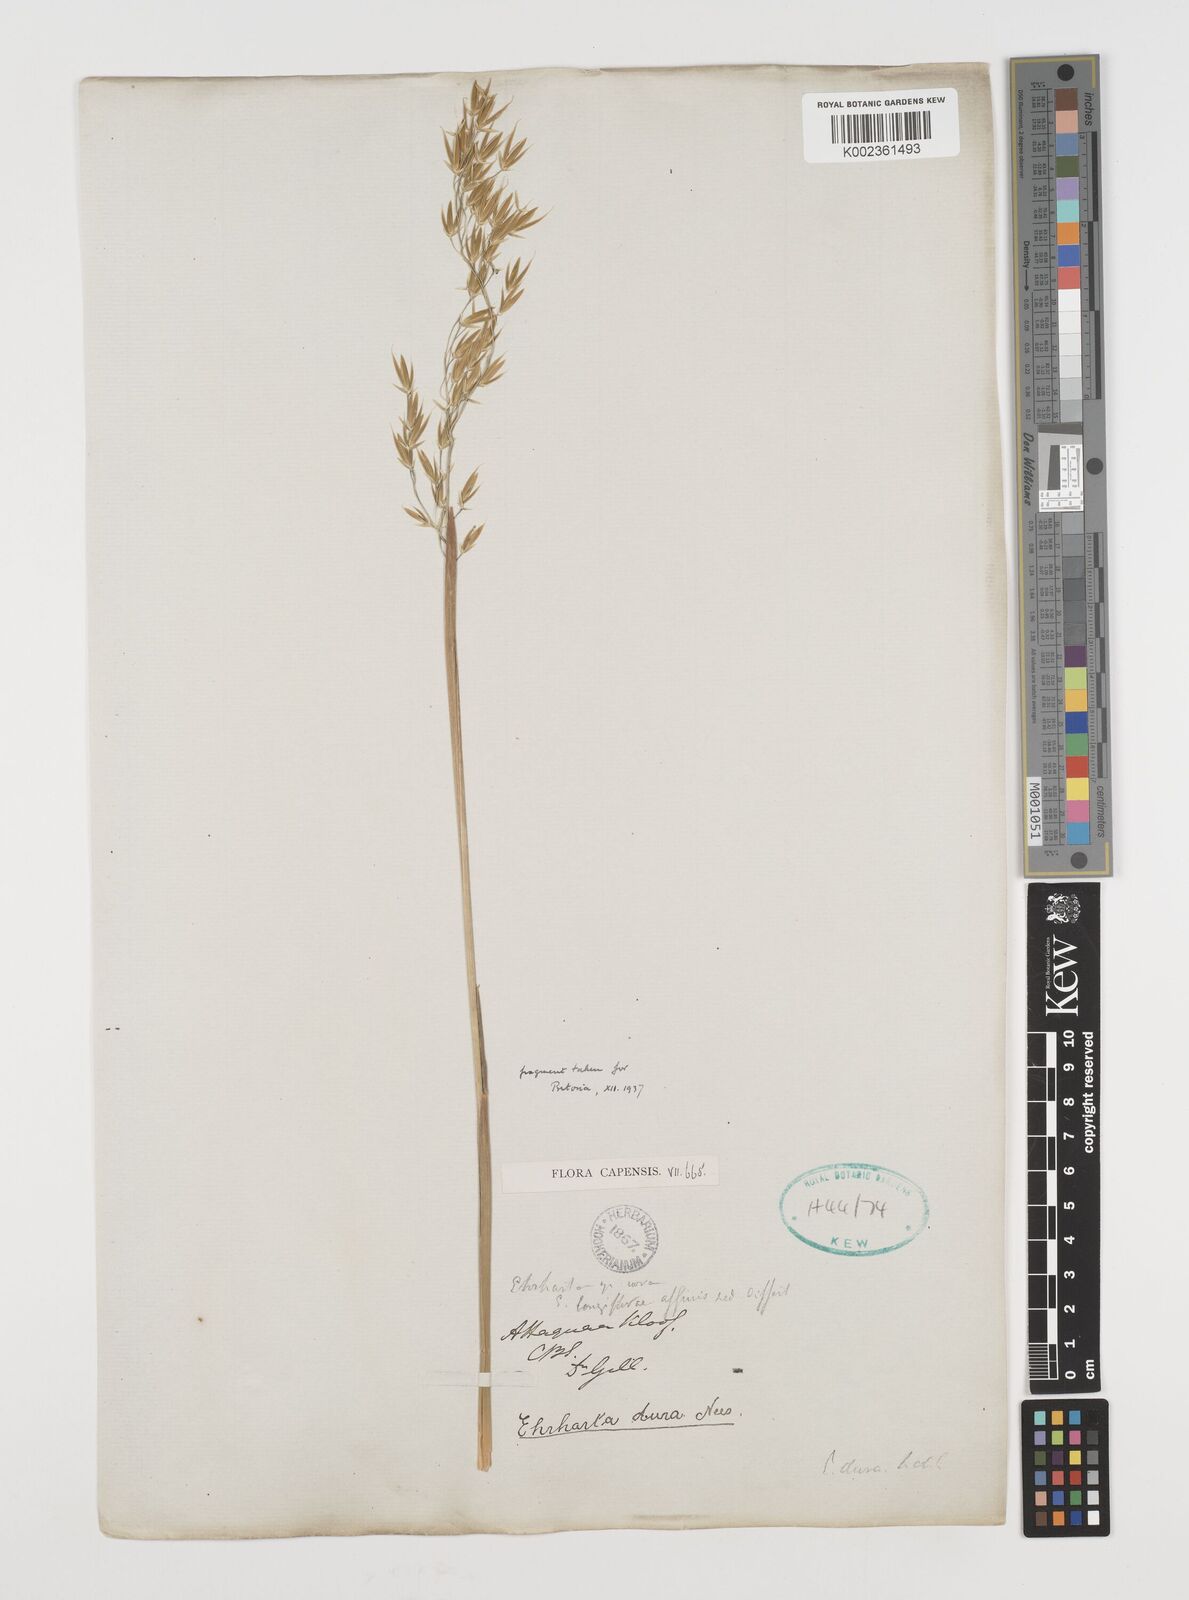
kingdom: Plantae
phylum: Tracheophyta
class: Liliopsida
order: Poales
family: Poaceae
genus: Ehrharta
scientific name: Ehrharta dura
